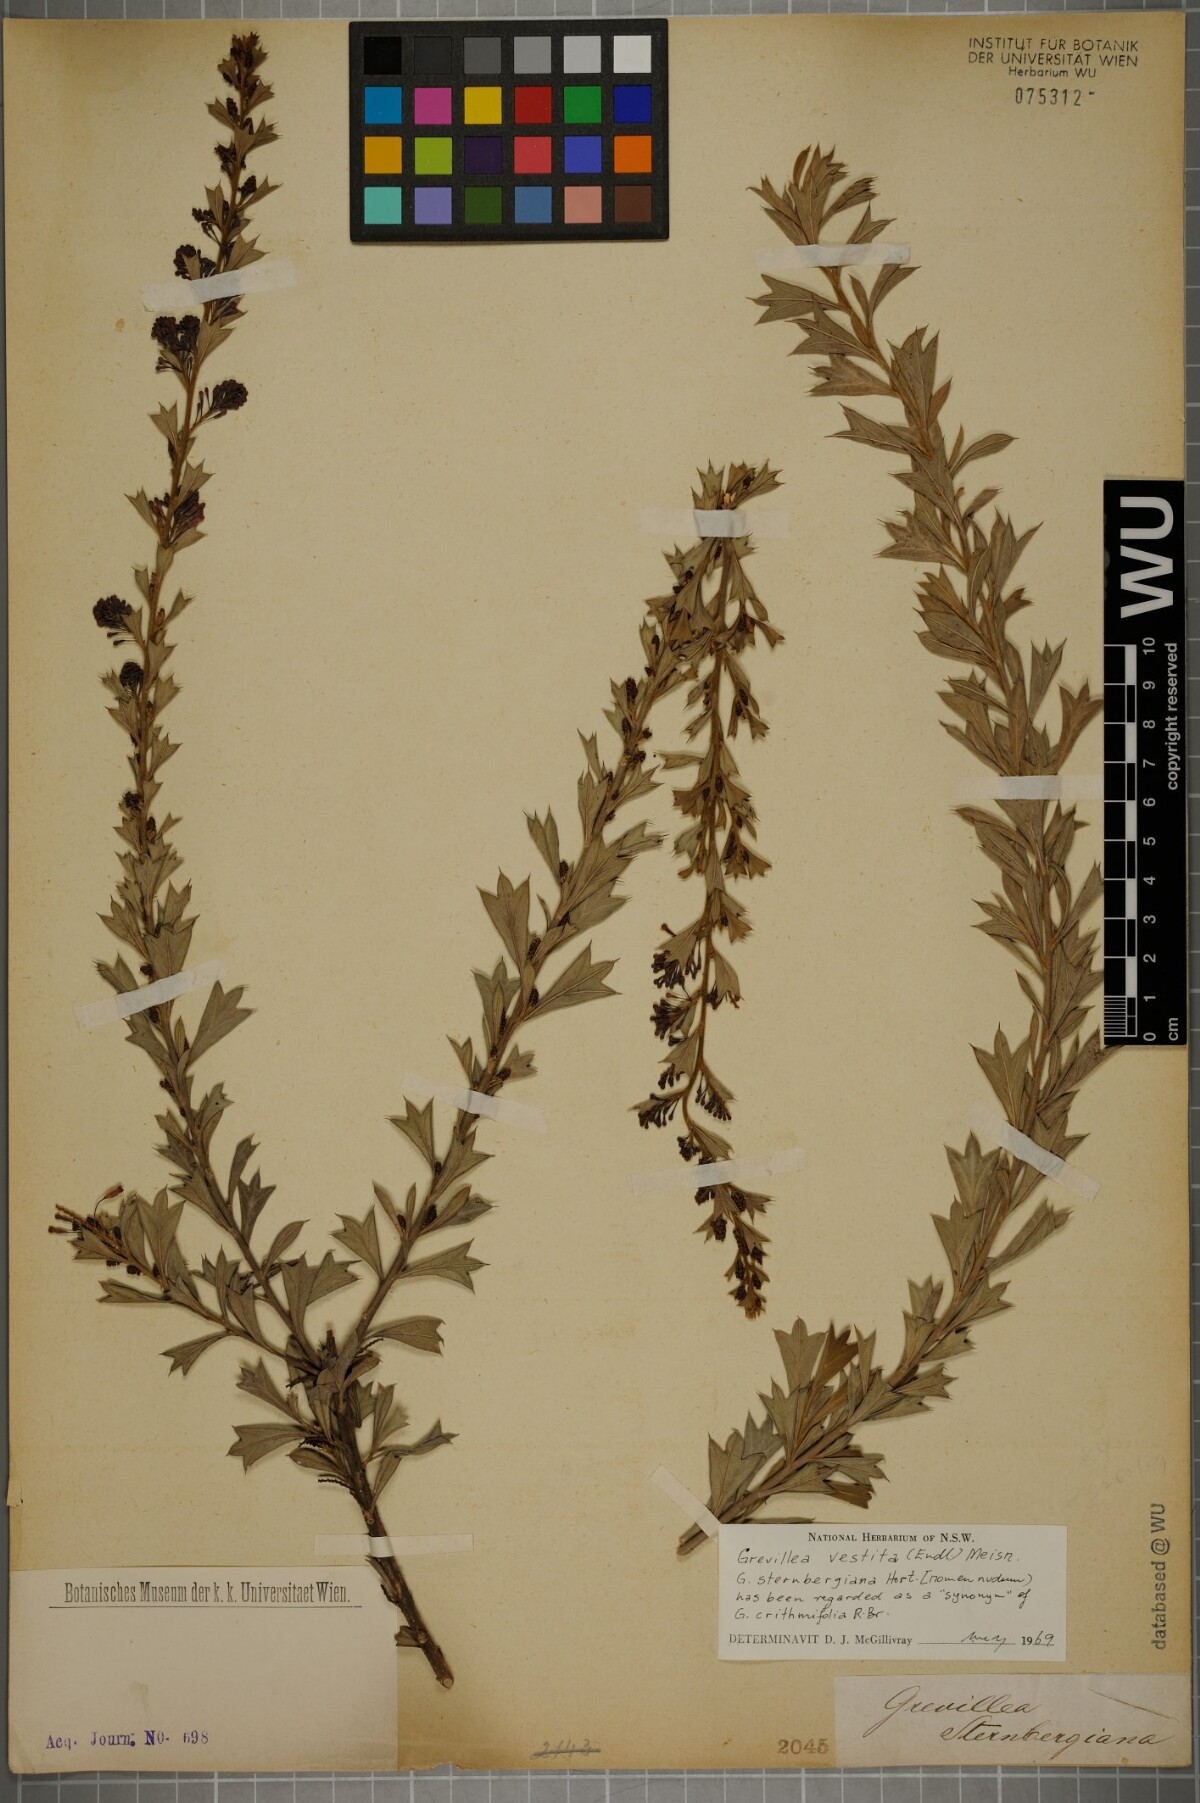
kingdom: Plantae
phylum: Tracheophyta
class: Magnoliopsida
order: Proteales
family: Proteaceae
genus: Grevillea
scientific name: Grevillea vestita
